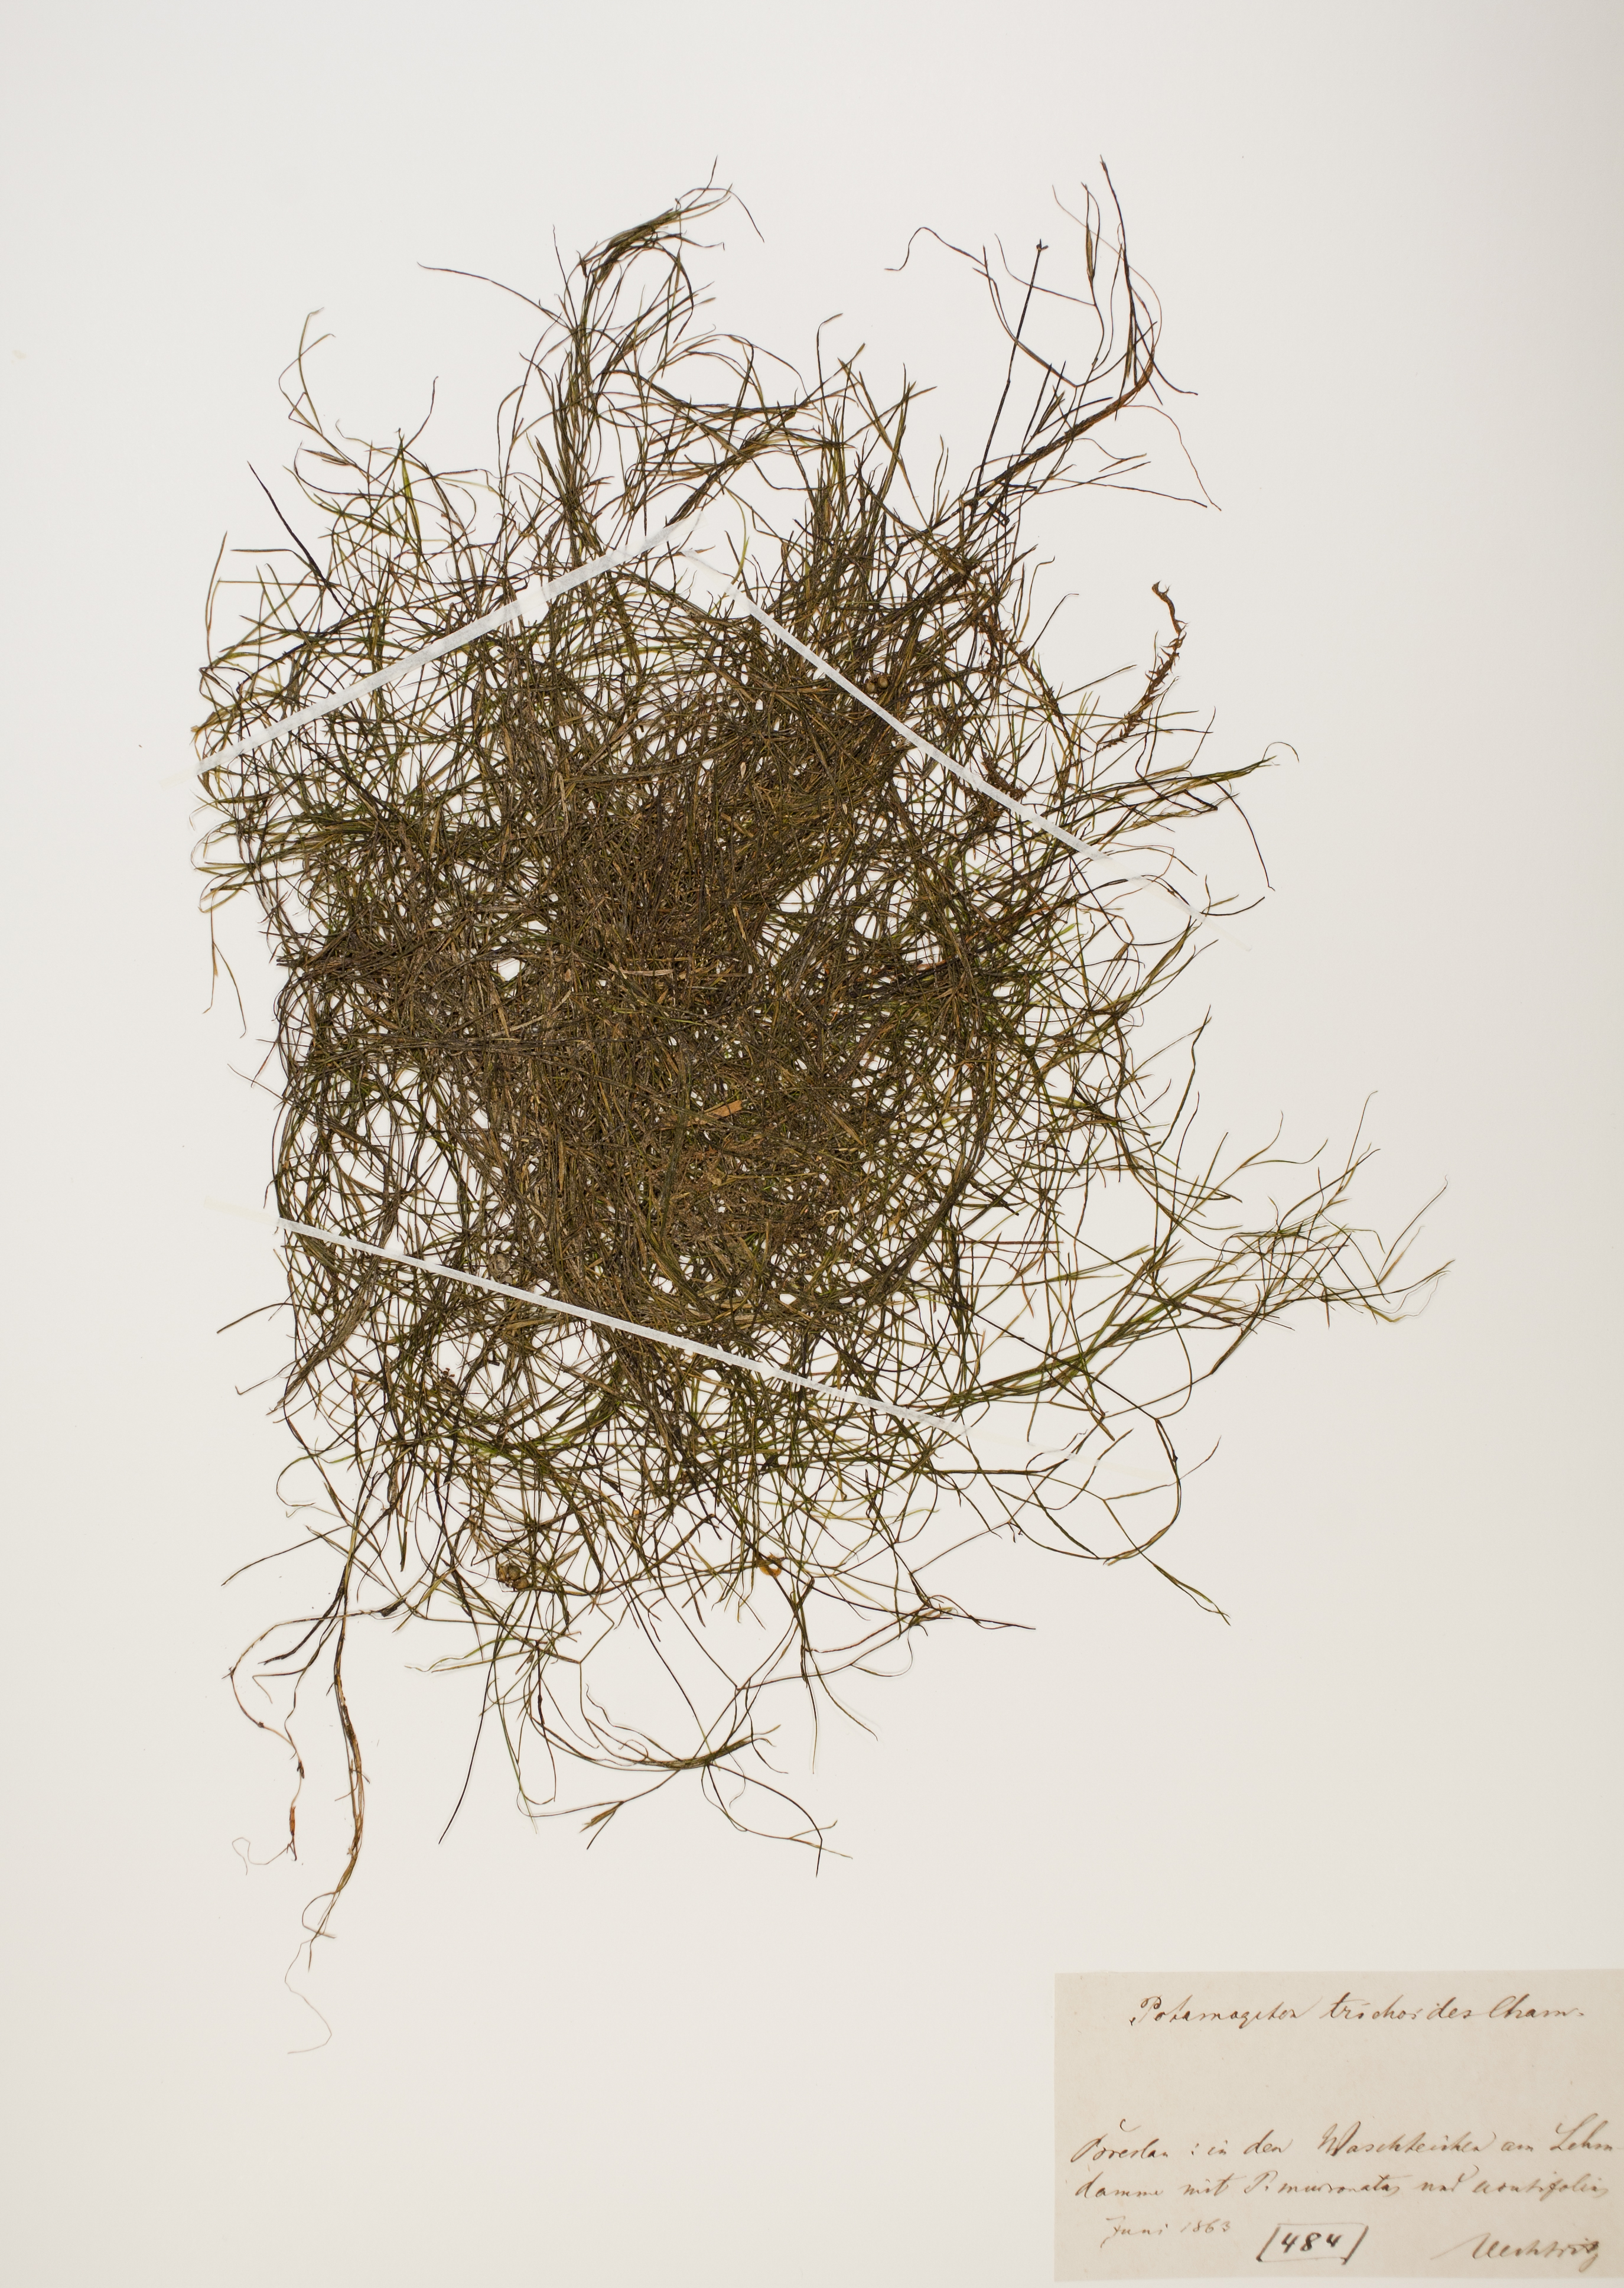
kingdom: Plantae
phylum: Tracheophyta
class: Liliopsida
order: Alismatales
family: Potamogetonaceae
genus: Potamogeton
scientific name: Potamogeton trichoides
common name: Hairlike pondweed
